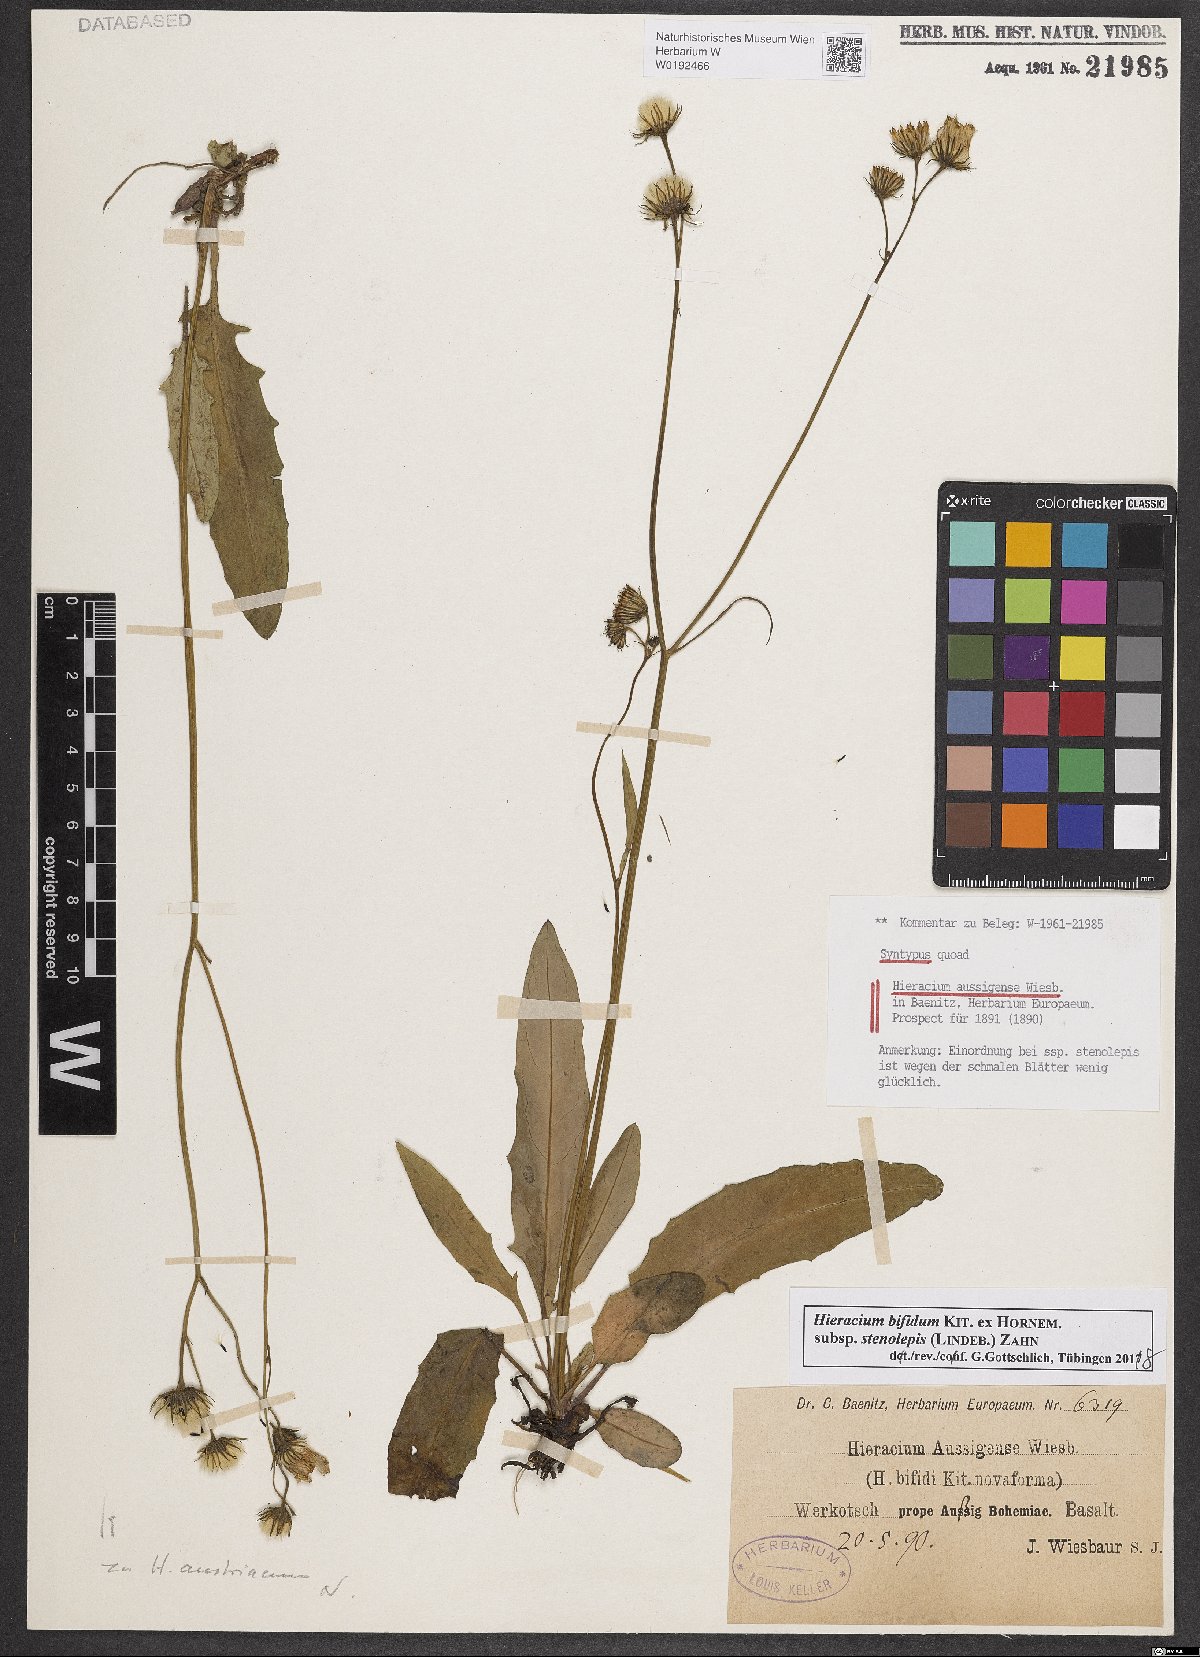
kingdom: Plantae
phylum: Tracheophyta
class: Magnoliopsida
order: Asterales
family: Asteraceae
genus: Hieracium
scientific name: Hieracium aussigense
